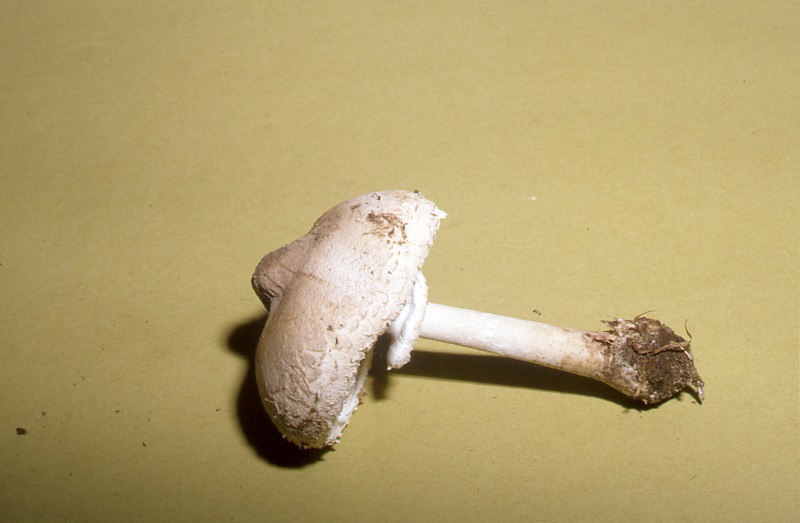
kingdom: Fungi
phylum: Basidiomycota
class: Agaricomycetes
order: Agaricales
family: Agaricaceae
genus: Macrolepiota
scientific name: Macrolepiota mastoidea
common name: Slender parasol
